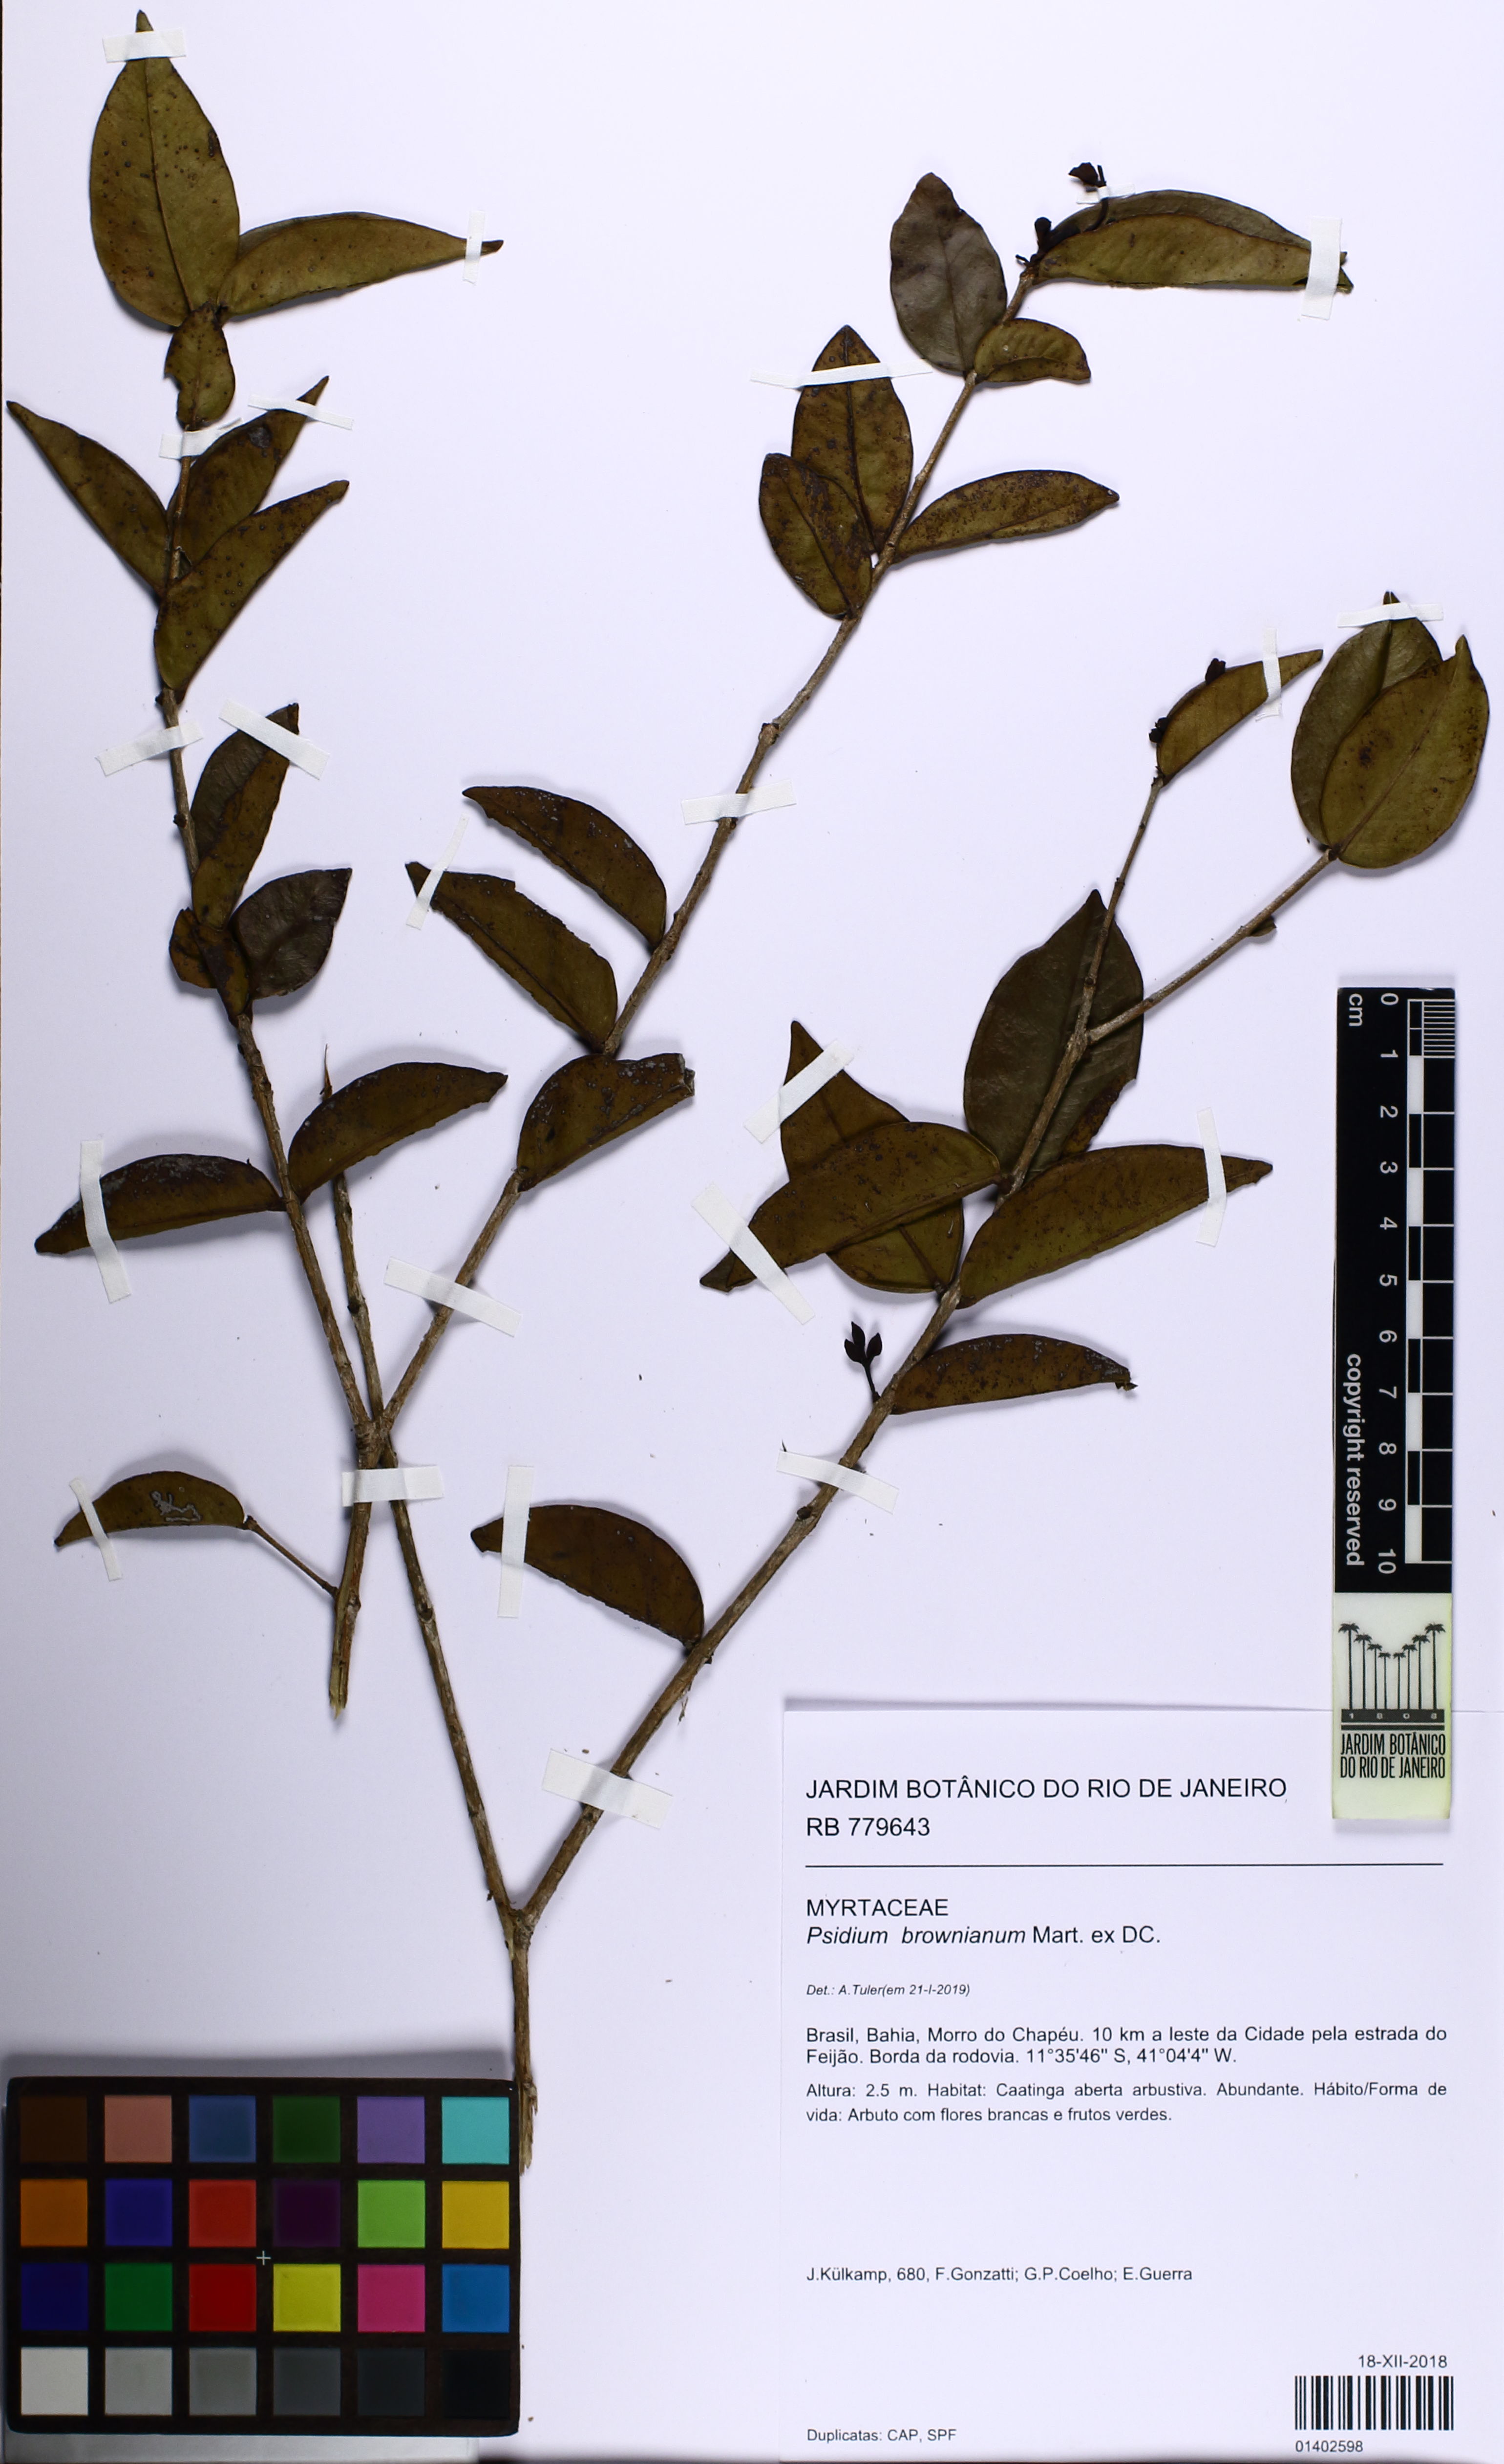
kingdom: Plantae
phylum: Tracheophyta
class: Magnoliopsida
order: Myrtales
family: Myrtaceae
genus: Psidium
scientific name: Psidium brownianum
